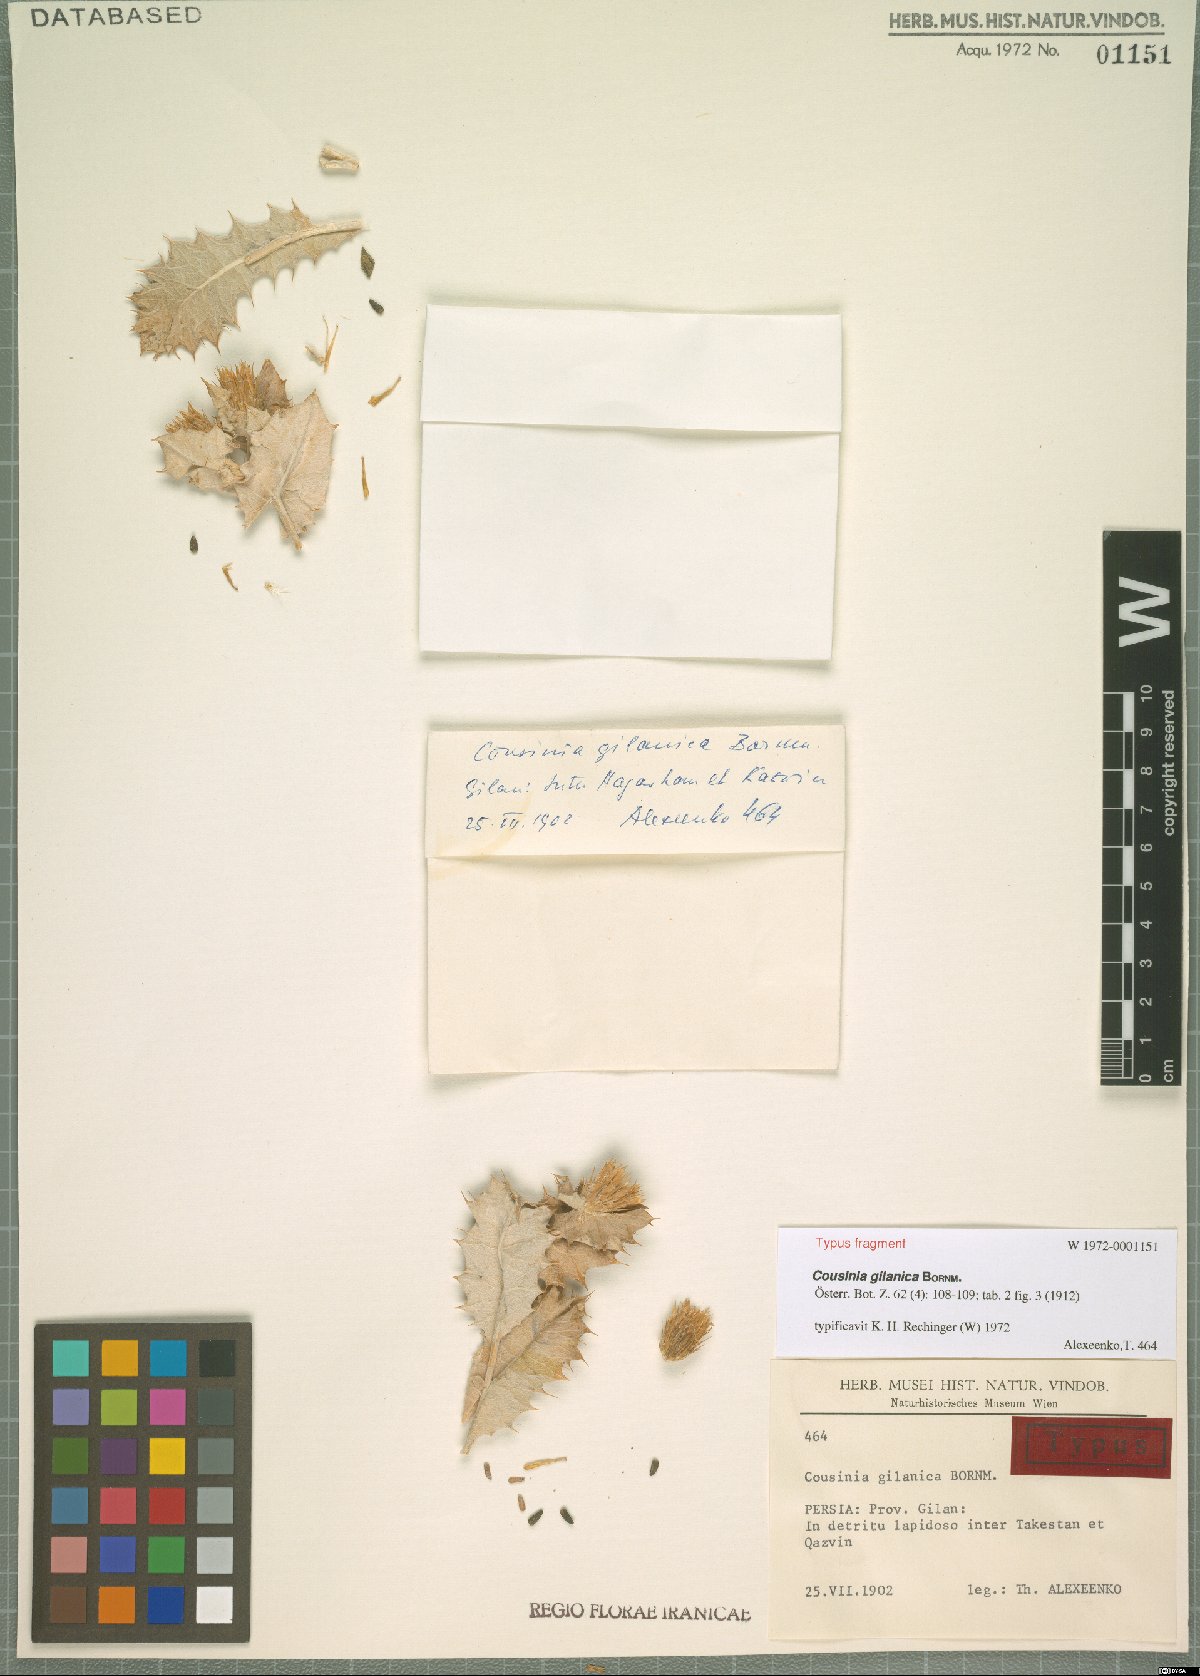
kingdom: Plantae
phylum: Tracheophyta
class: Magnoliopsida
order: Asterales
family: Asteraceae
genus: Cousinia
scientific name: Cousinia gilanica
